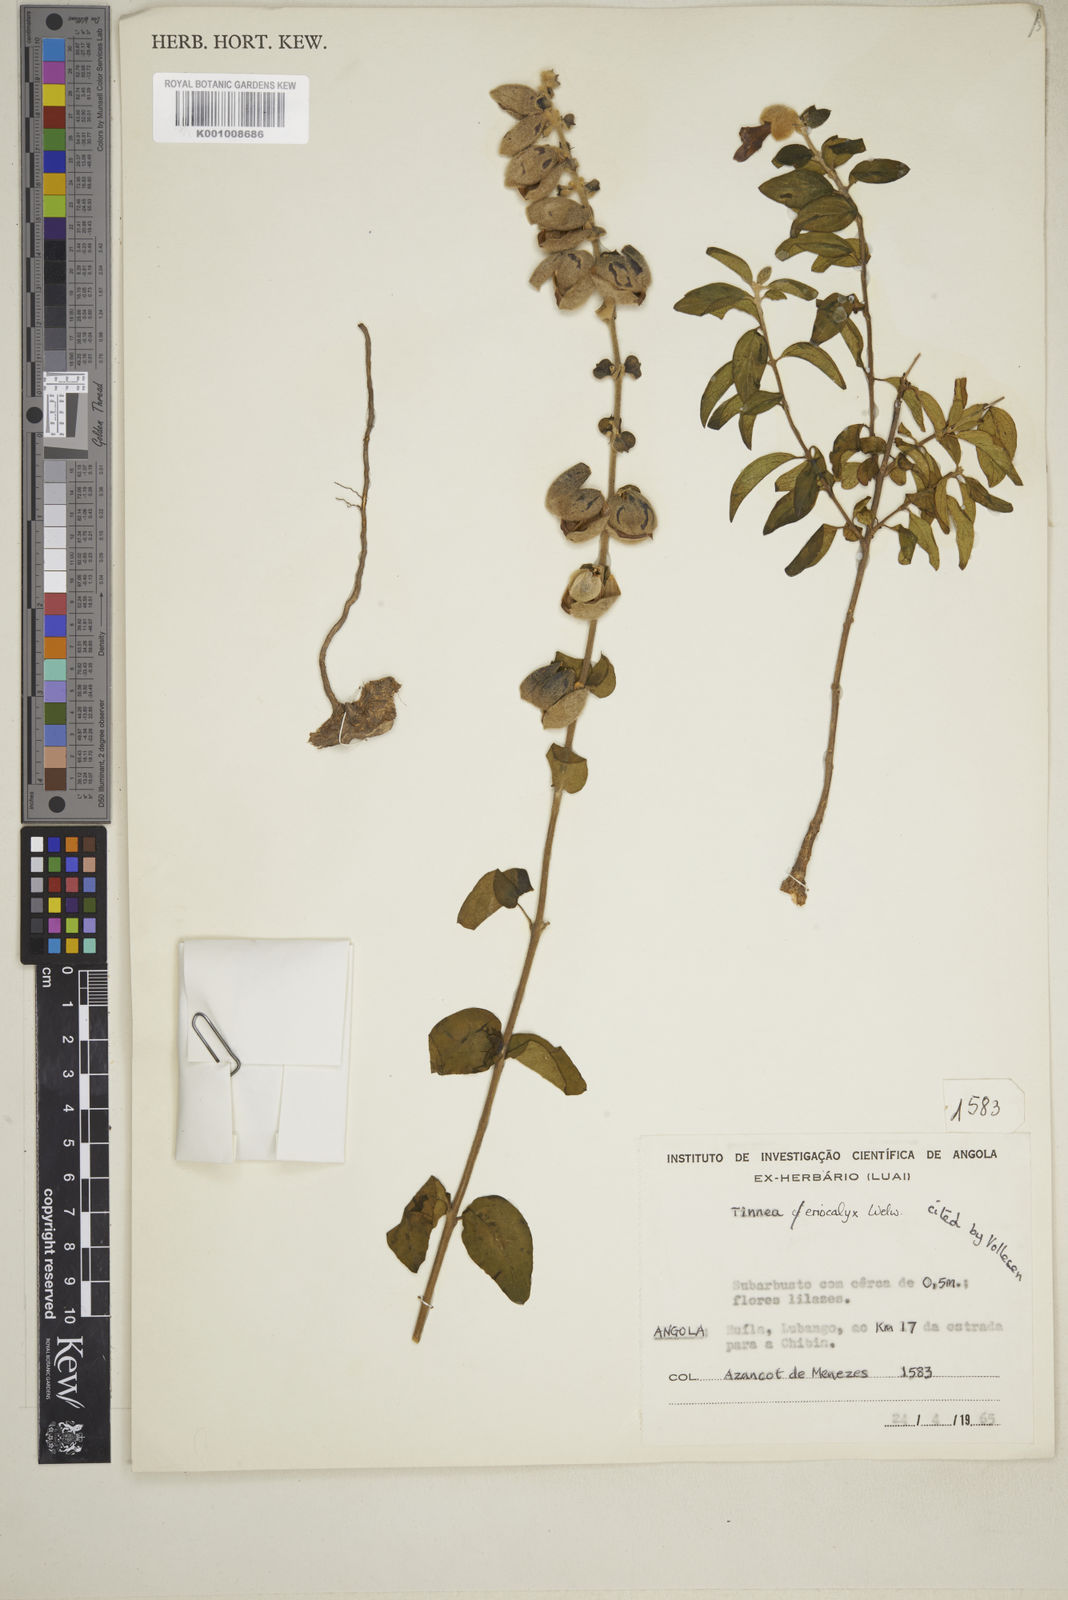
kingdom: Plantae
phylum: Tracheophyta
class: Magnoliopsida
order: Lamiales
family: Lamiaceae
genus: Tinnea
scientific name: Tinnea eriocalyx
